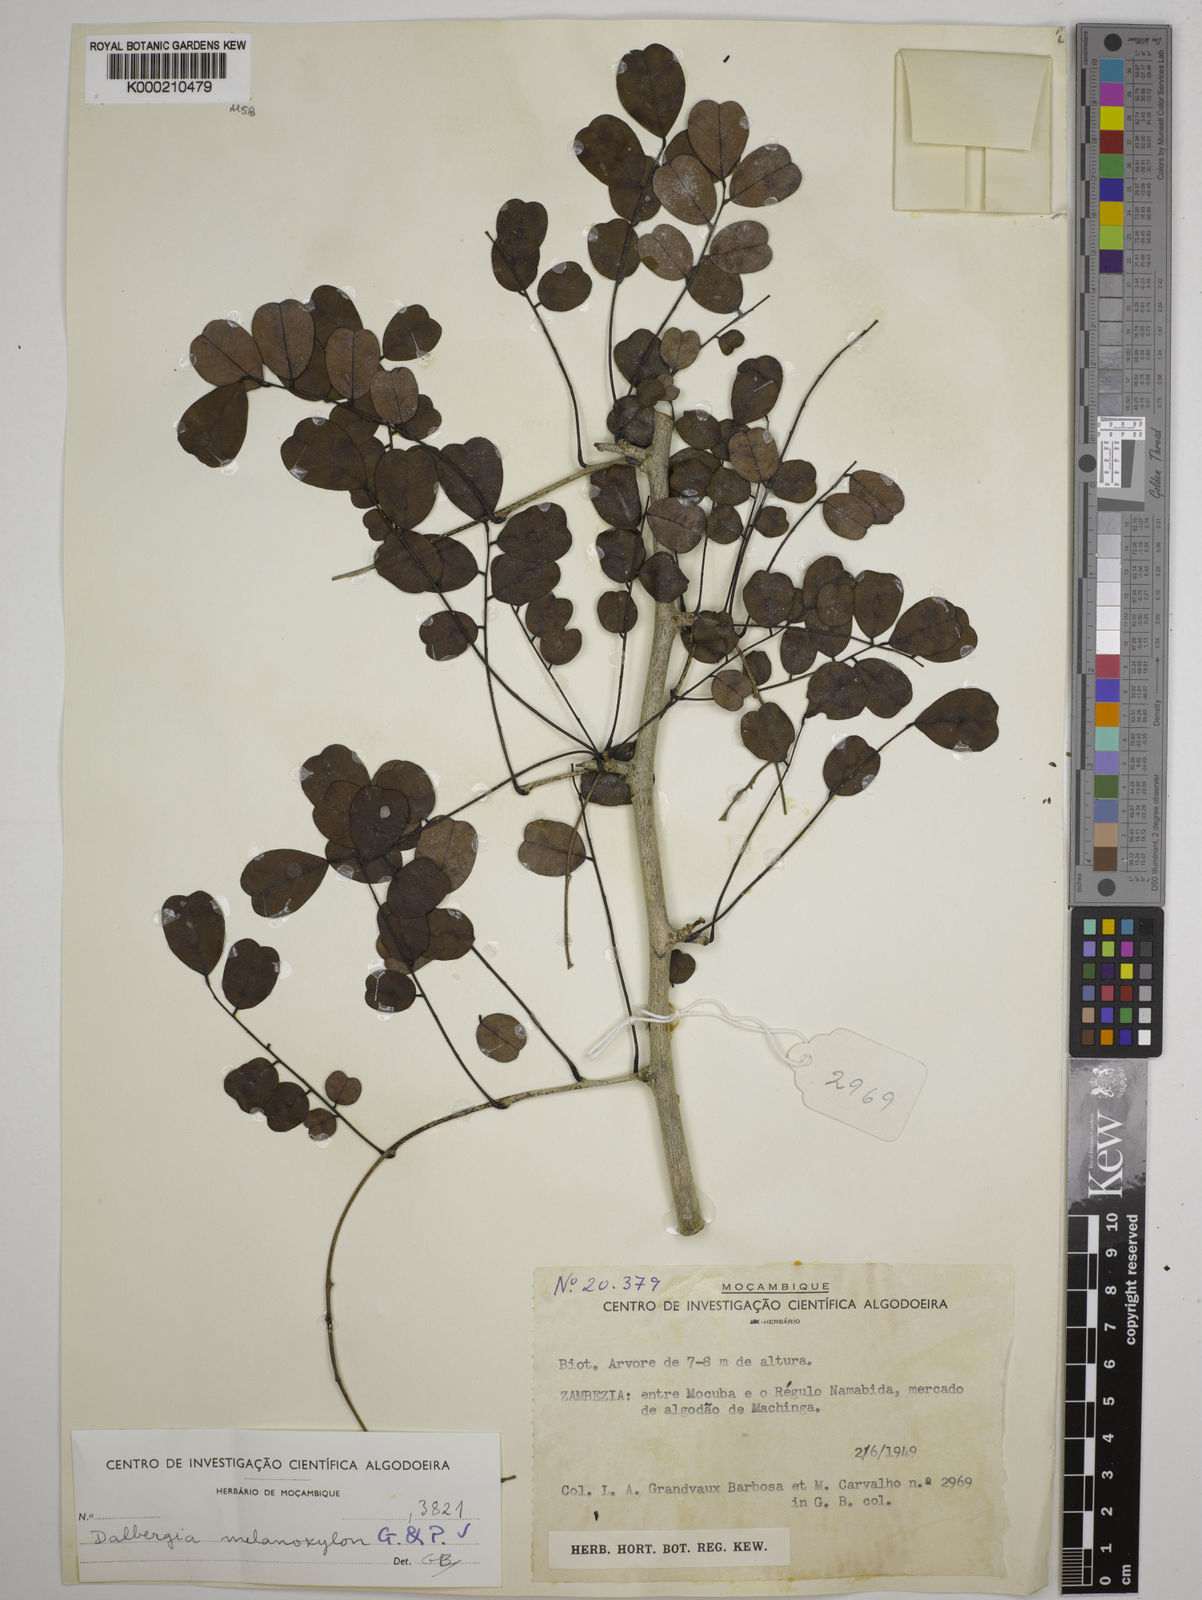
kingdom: Plantae
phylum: Tracheophyta
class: Magnoliopsida
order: Fabales
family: Fabaceae
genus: Dalbergia
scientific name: Dalbergia melanoxylon
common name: African blackwood
